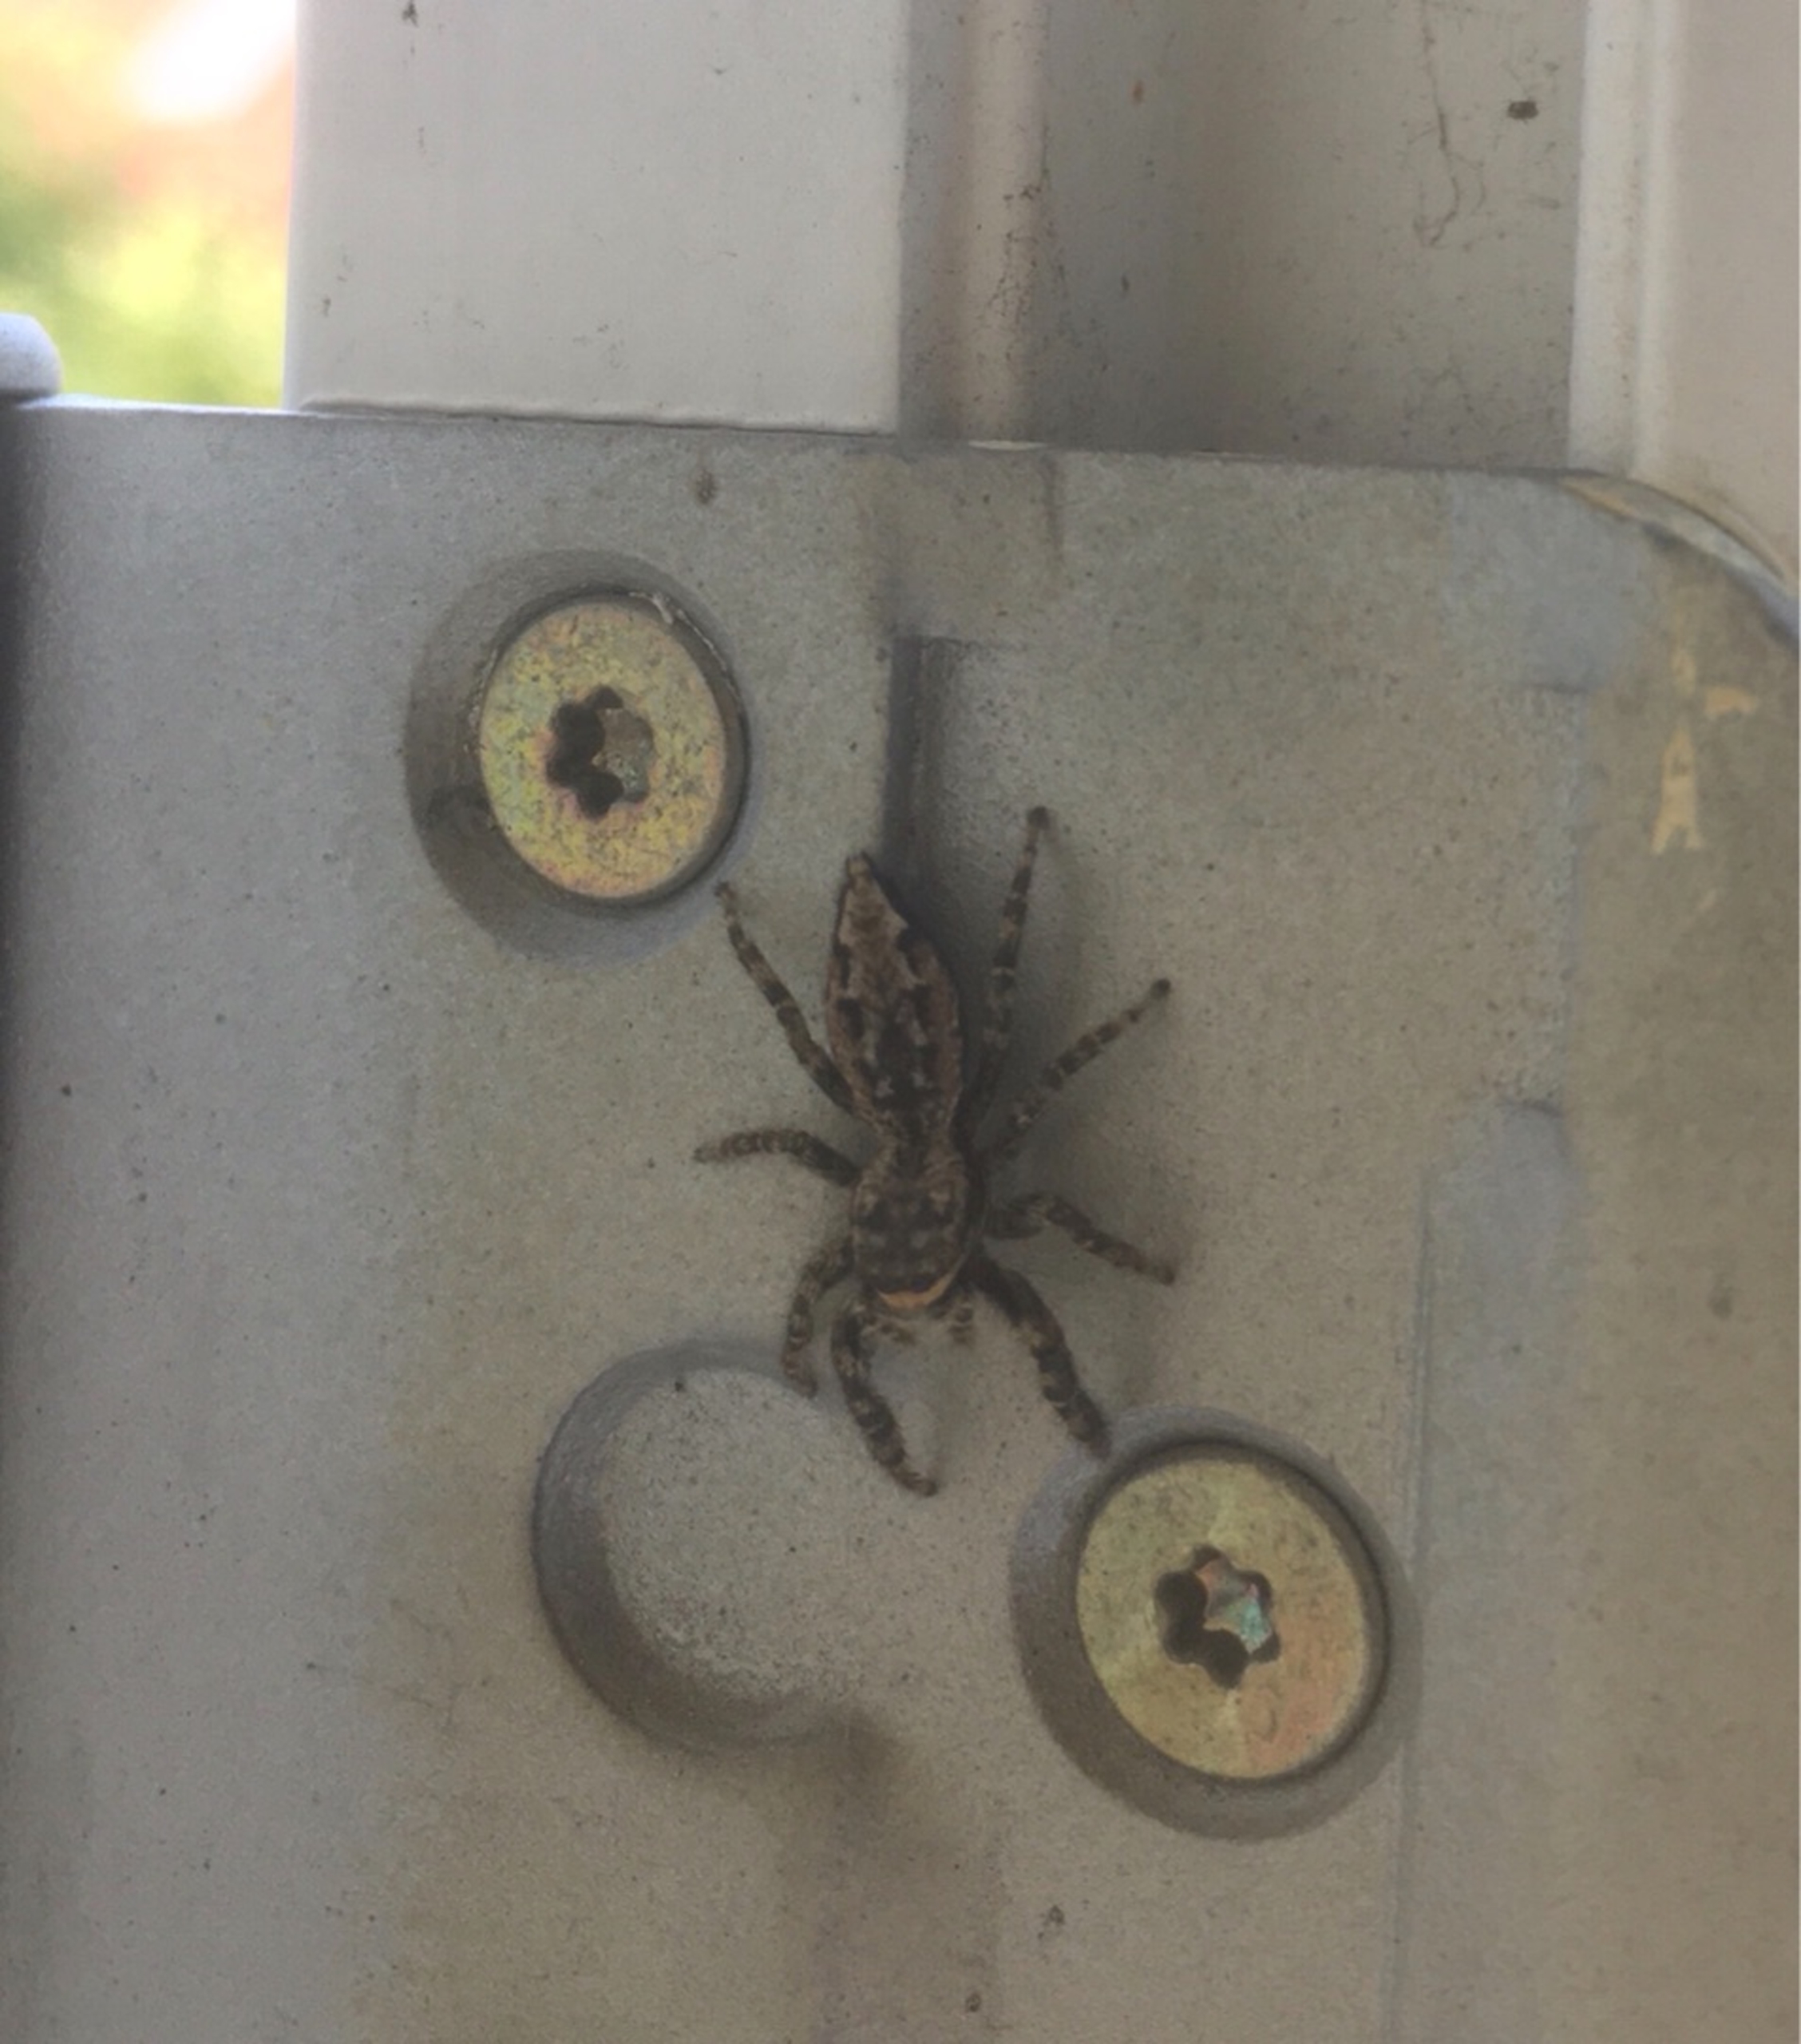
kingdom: Animalia
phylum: Arthropoda
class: Arachnida
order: Araneae
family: Salticidae
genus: Marpissa
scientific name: Marpissa muscosa
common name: Stor springedderkop
